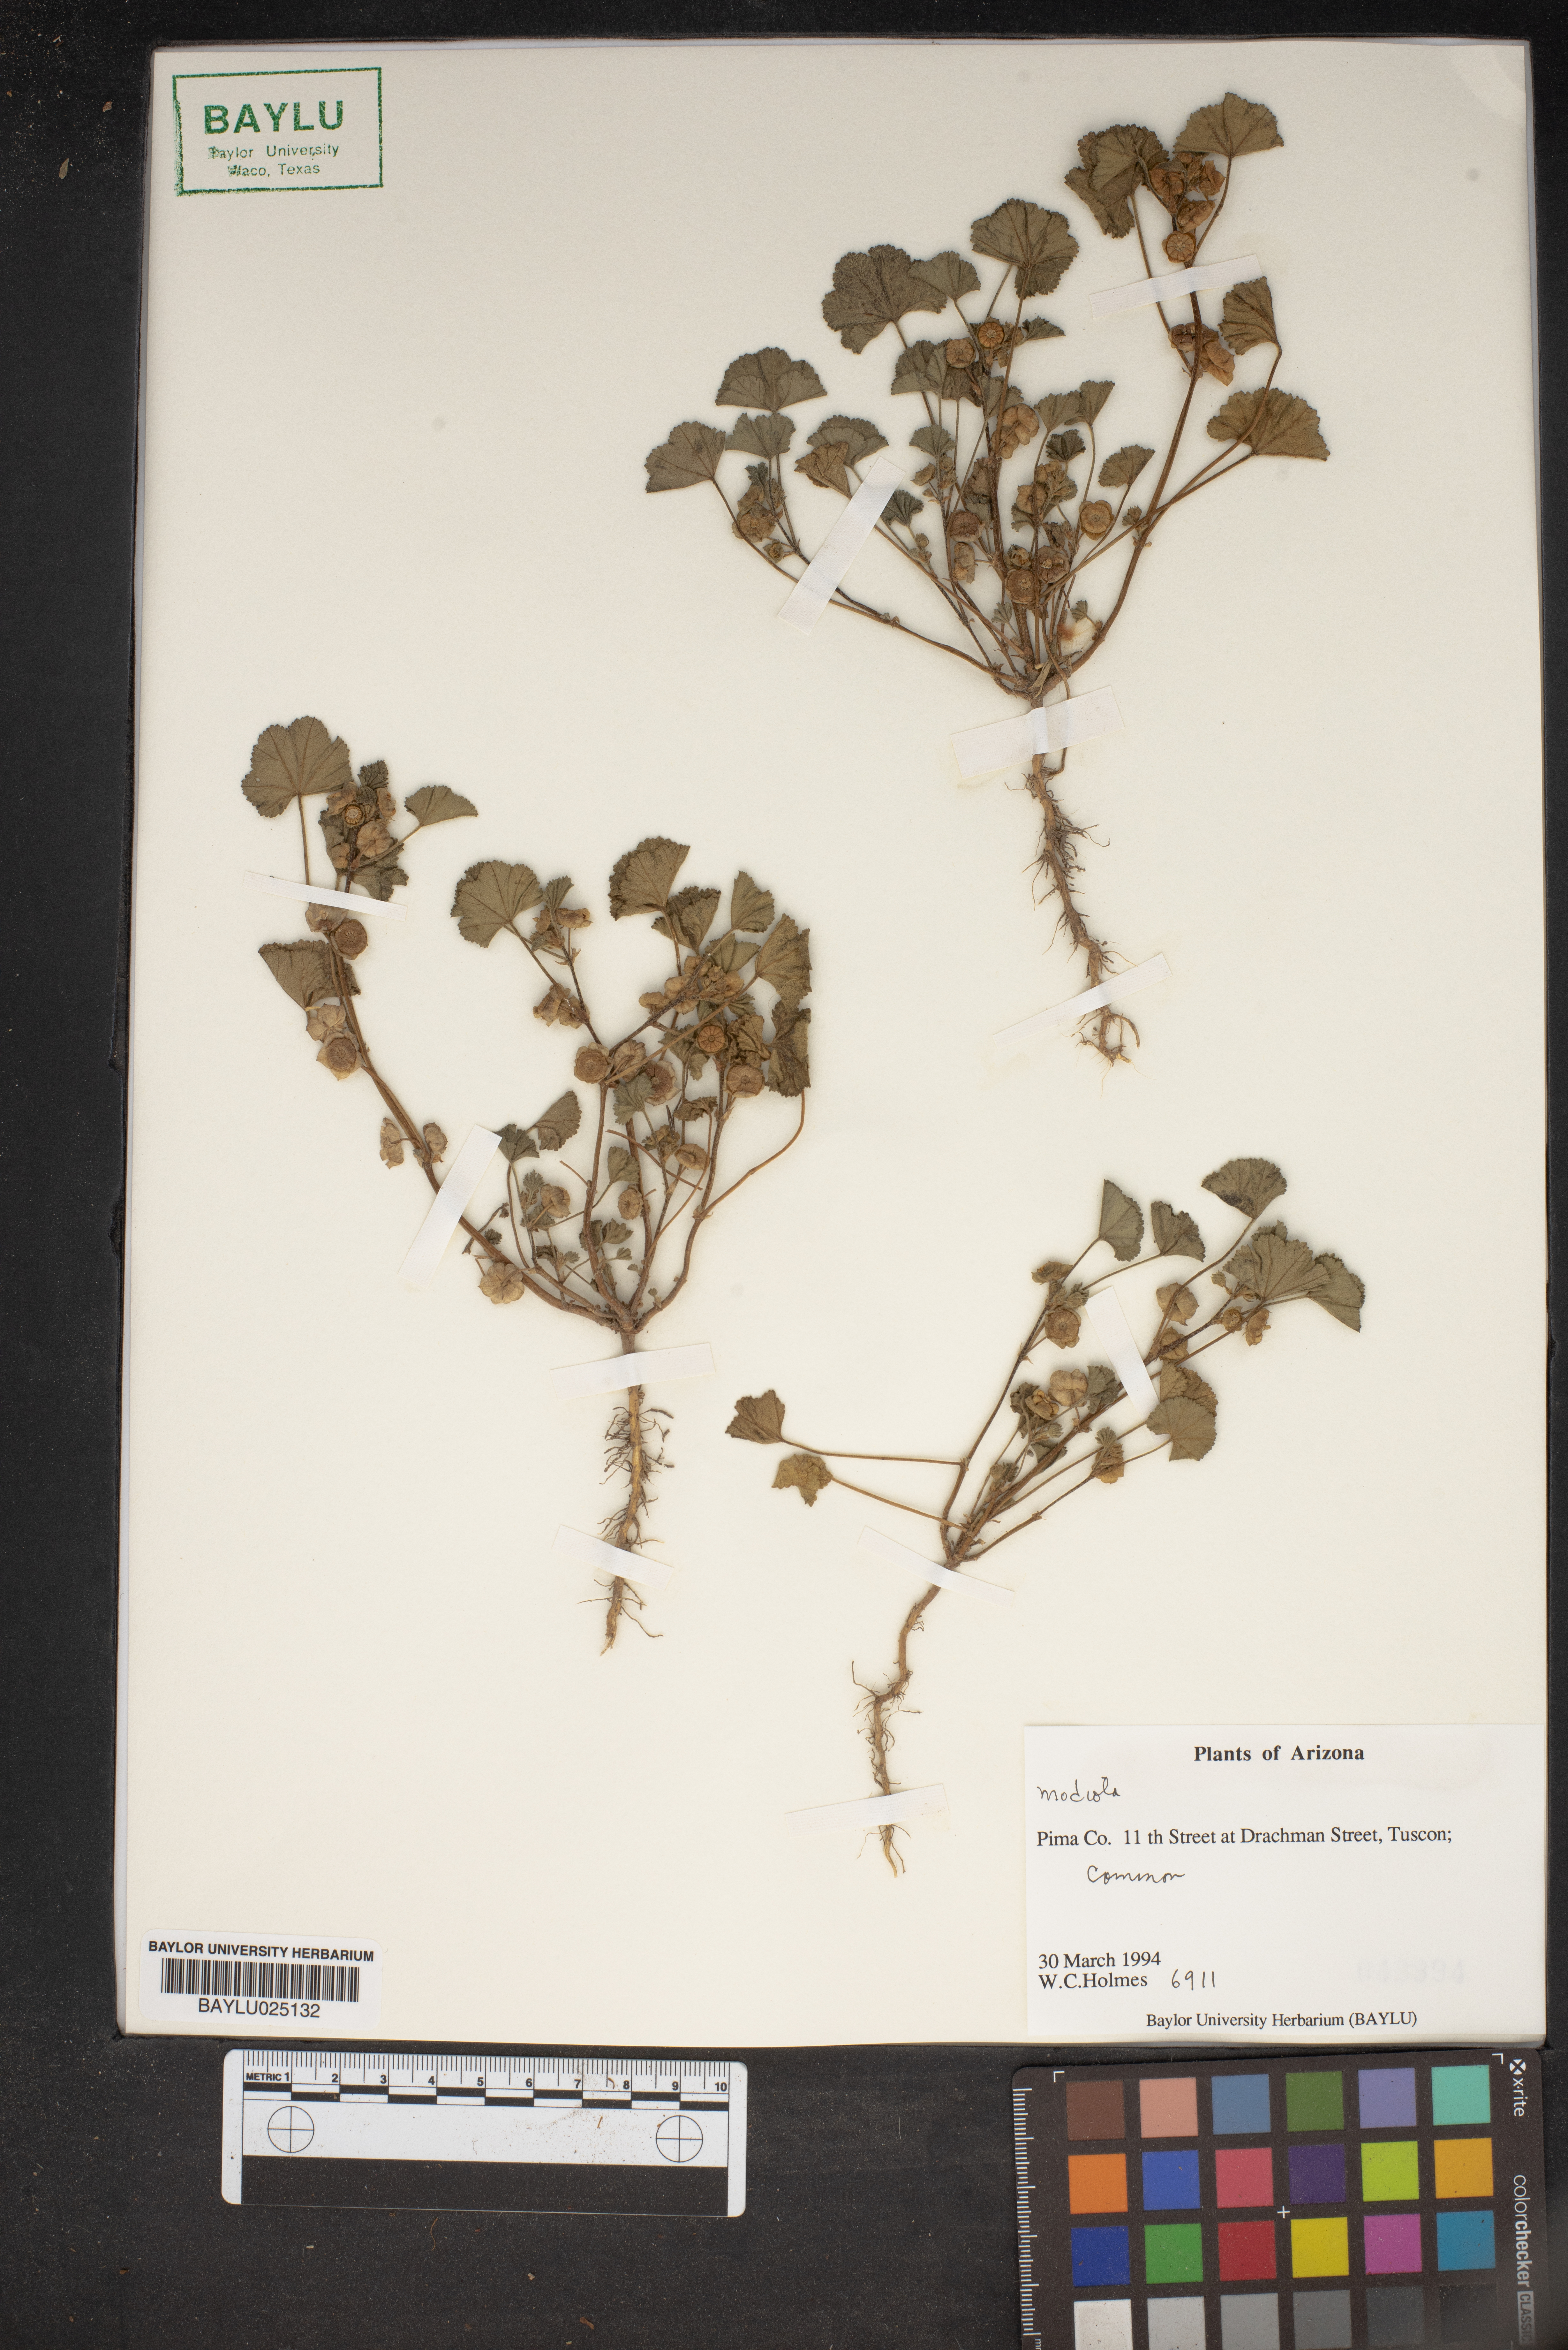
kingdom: Plantae
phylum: Tracheophyta
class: Magnoliopsida
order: Malvales
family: Malvaceae
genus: Modiola
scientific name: Modiola
